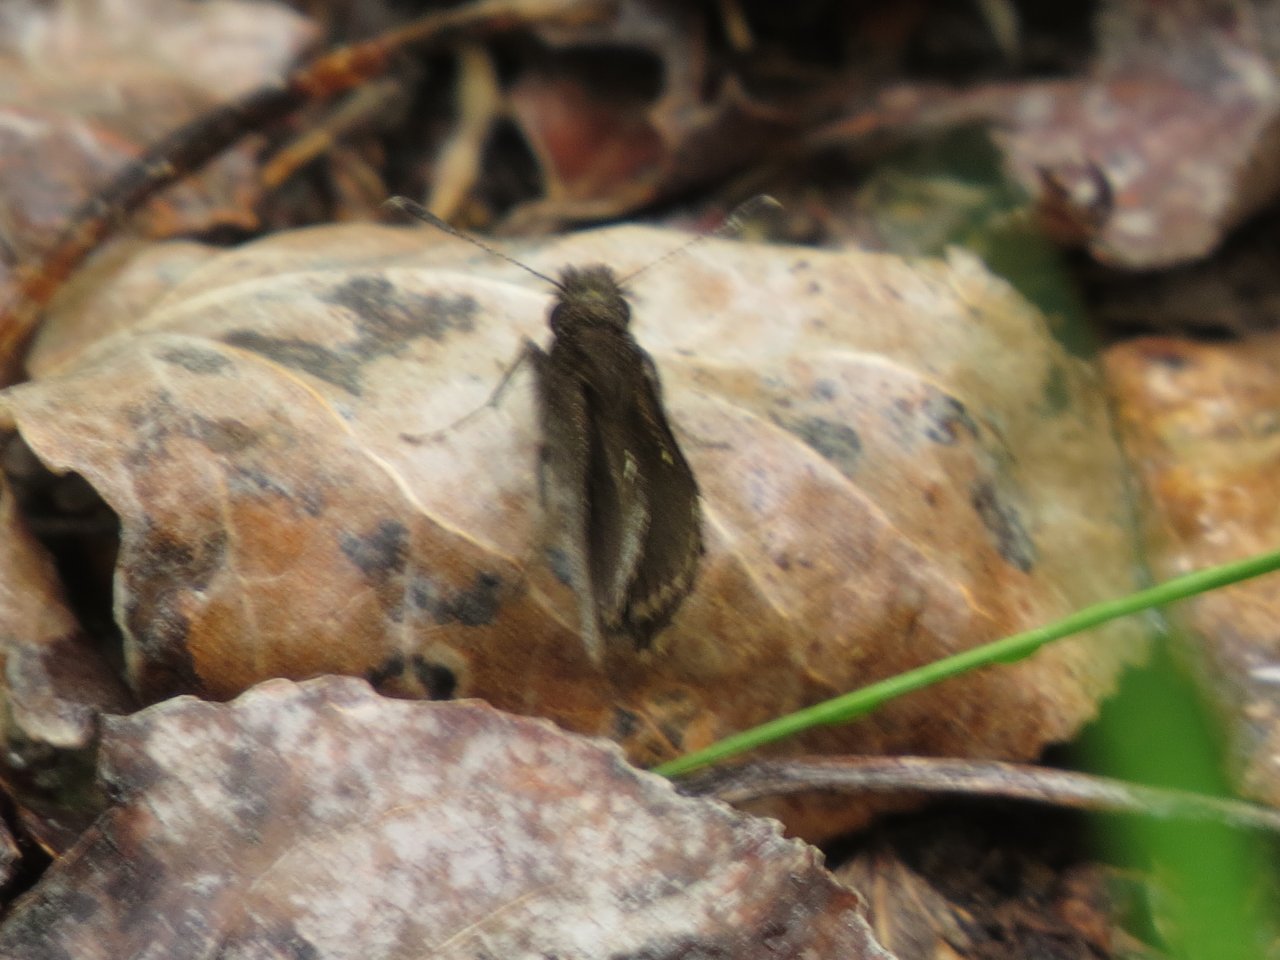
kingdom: Animalia
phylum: Arthropoda
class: Insecta
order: Lepidoptera
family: Hesperiidae
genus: Mastor
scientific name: Mastor vialis
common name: Common Roadside-Skipper
